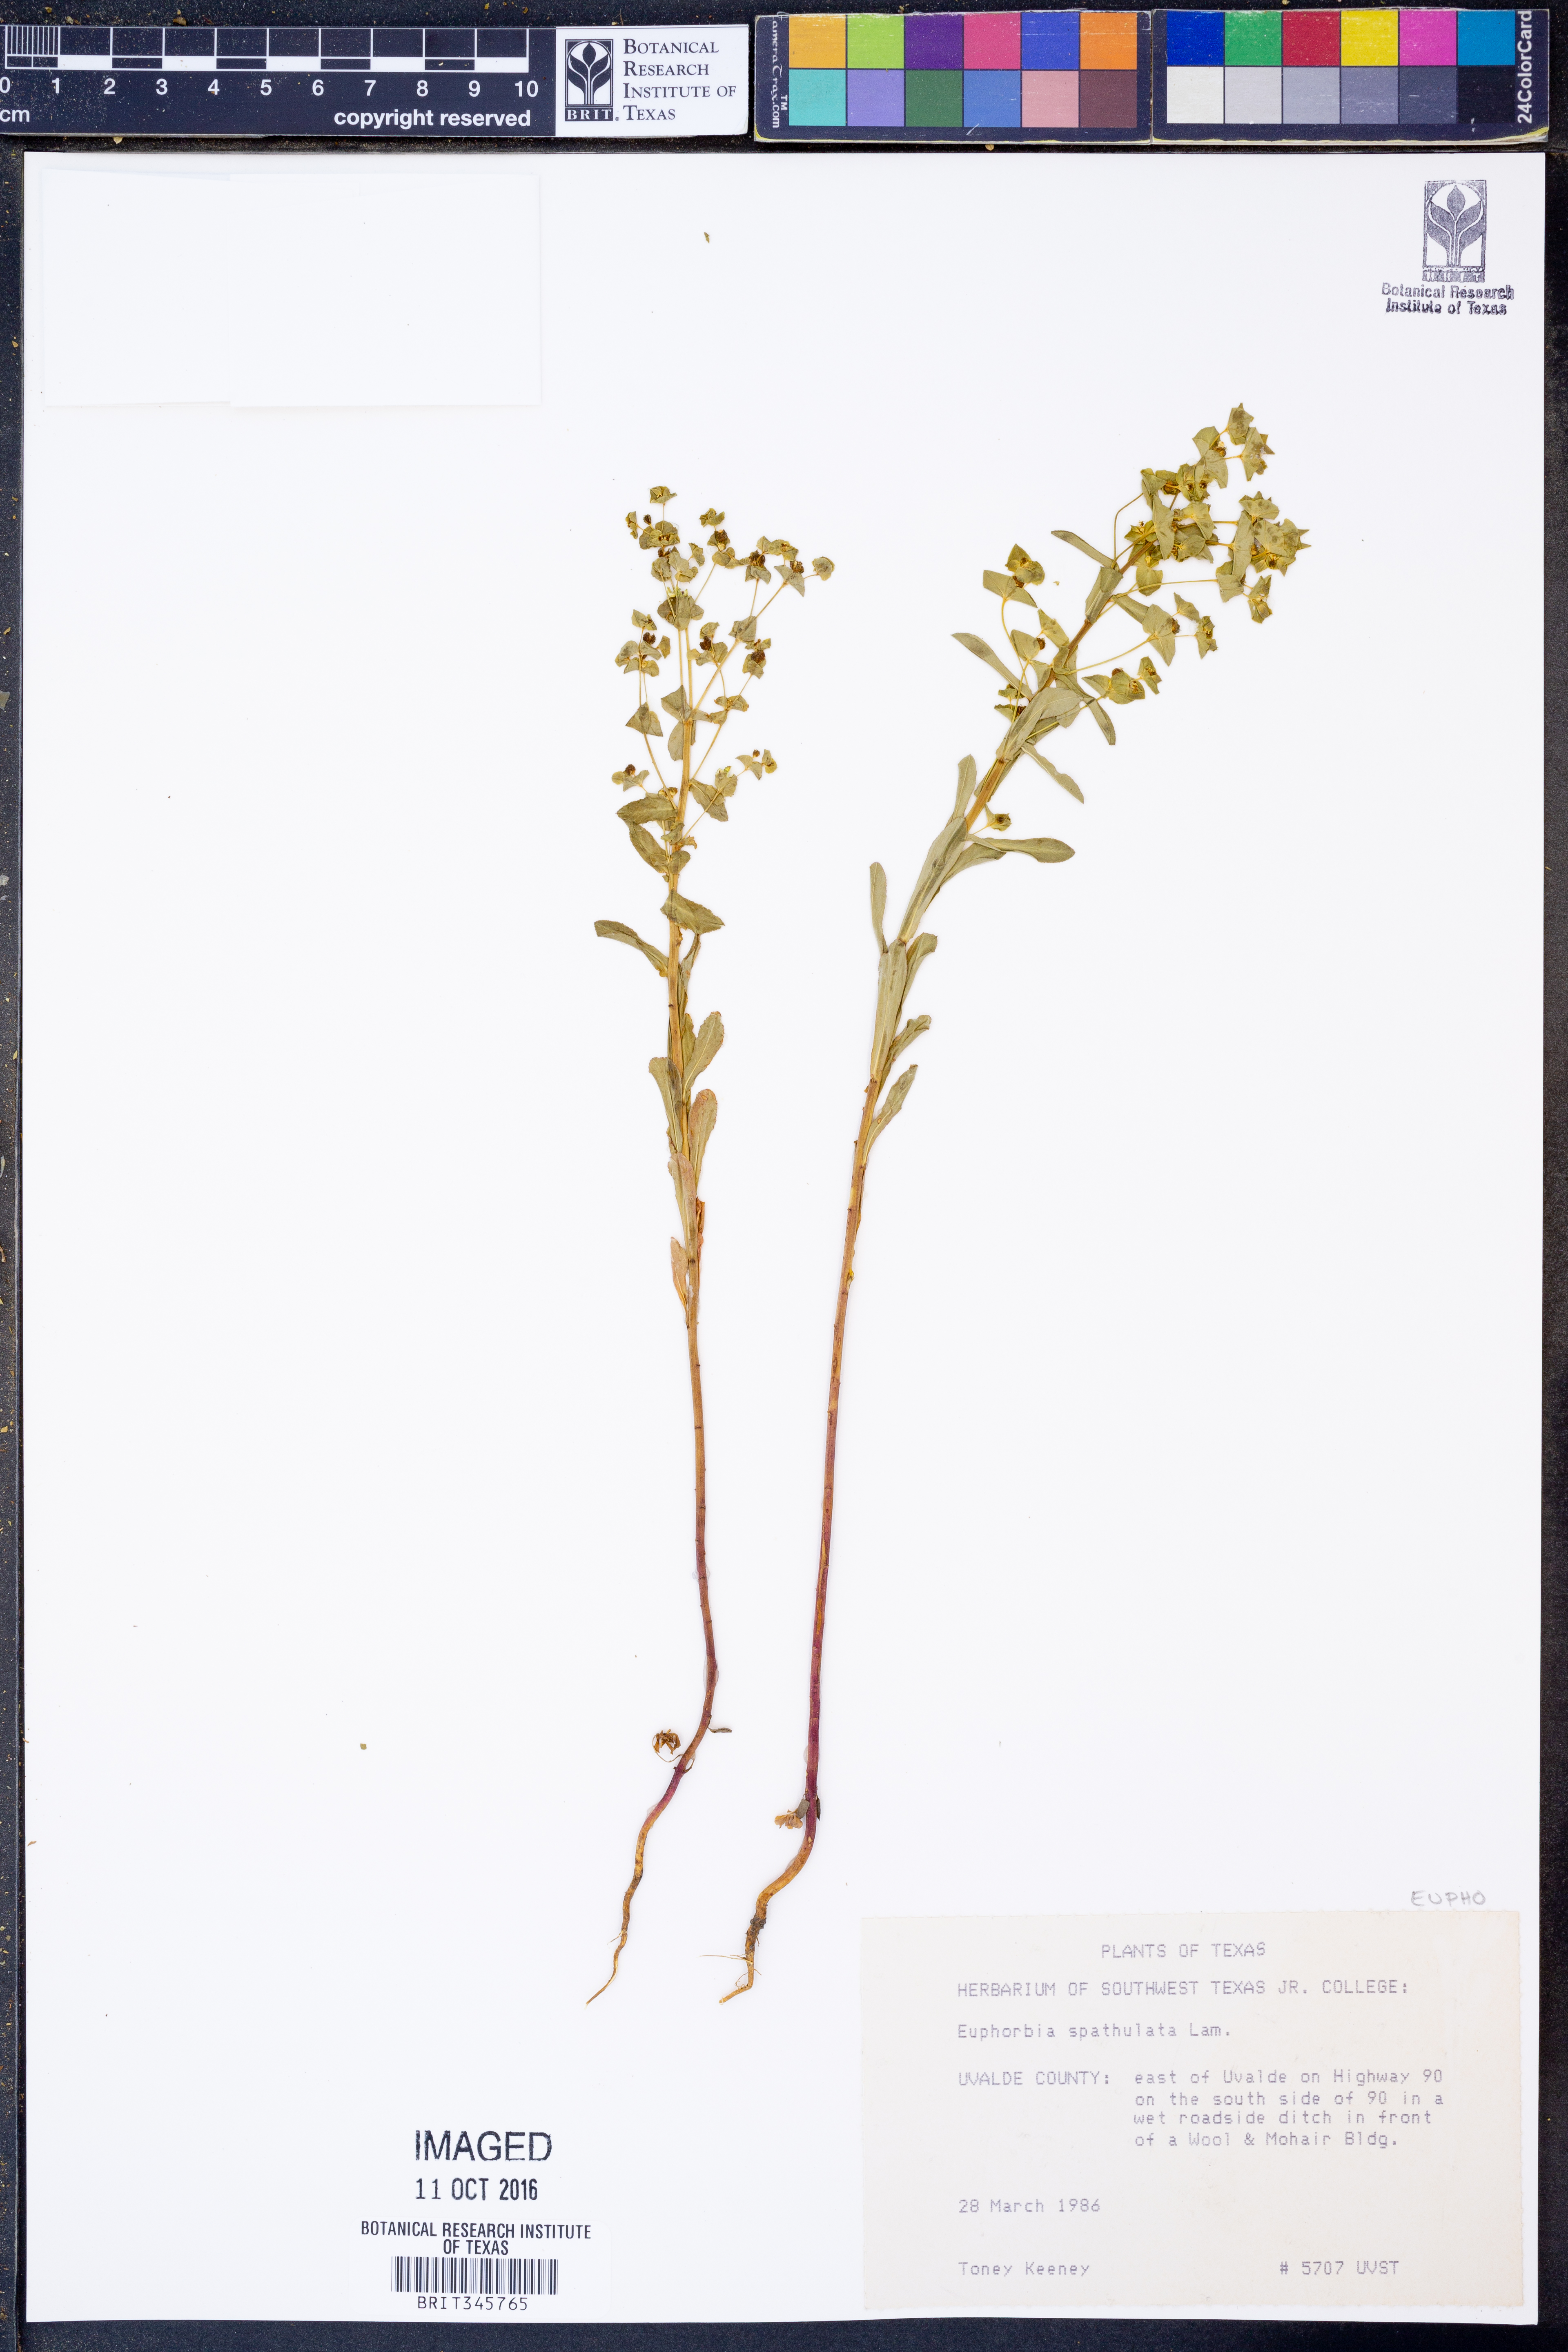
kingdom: Plantae
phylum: Tracheophyta
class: Magnoliopsida
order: Malpighiales
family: Euphorbiaceae
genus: Euphorbia
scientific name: Euphorbia spathulata
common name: Blunt spurge
